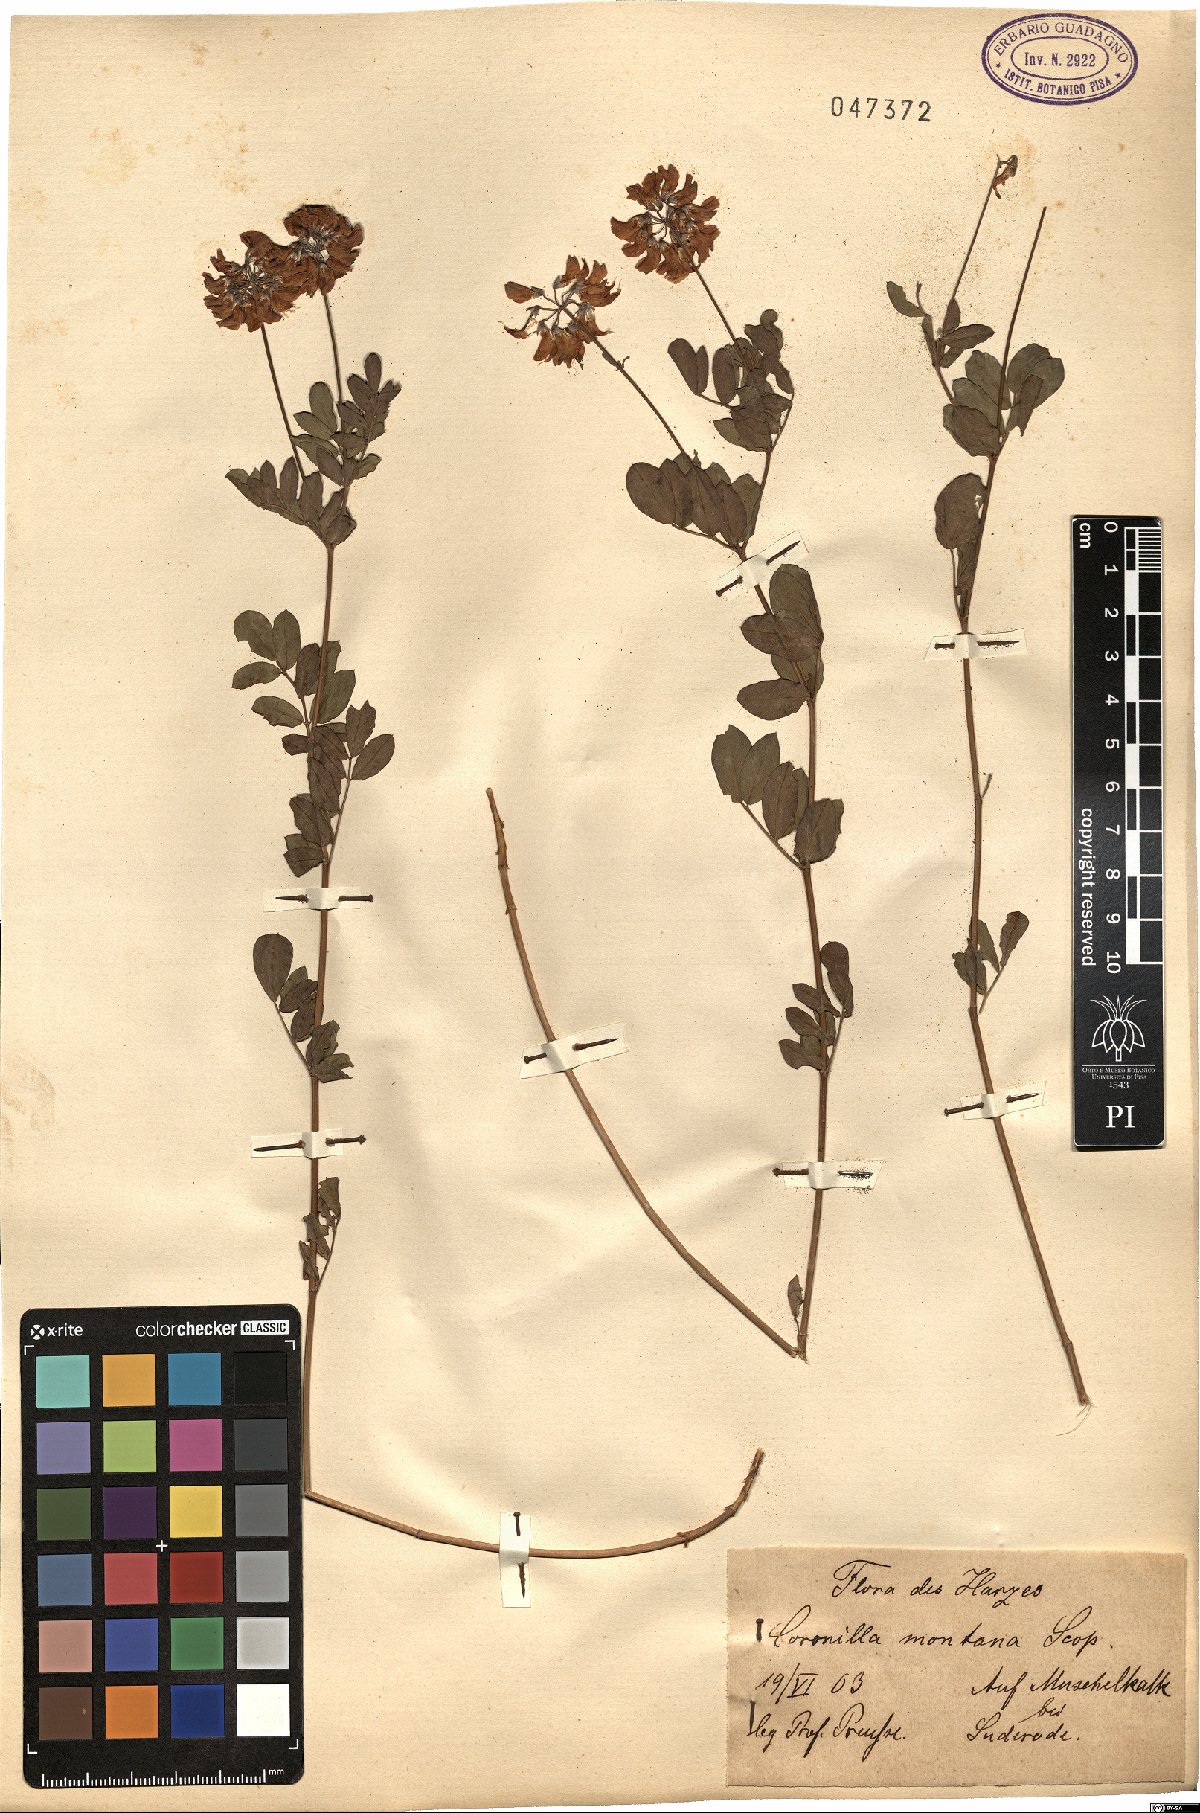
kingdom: Plantae
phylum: Tracheophyta
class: Magnoliopsida
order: Fabales
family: Fabaceae
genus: Coronilla
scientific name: Coronilla coronata
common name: Scorpion-vetch
